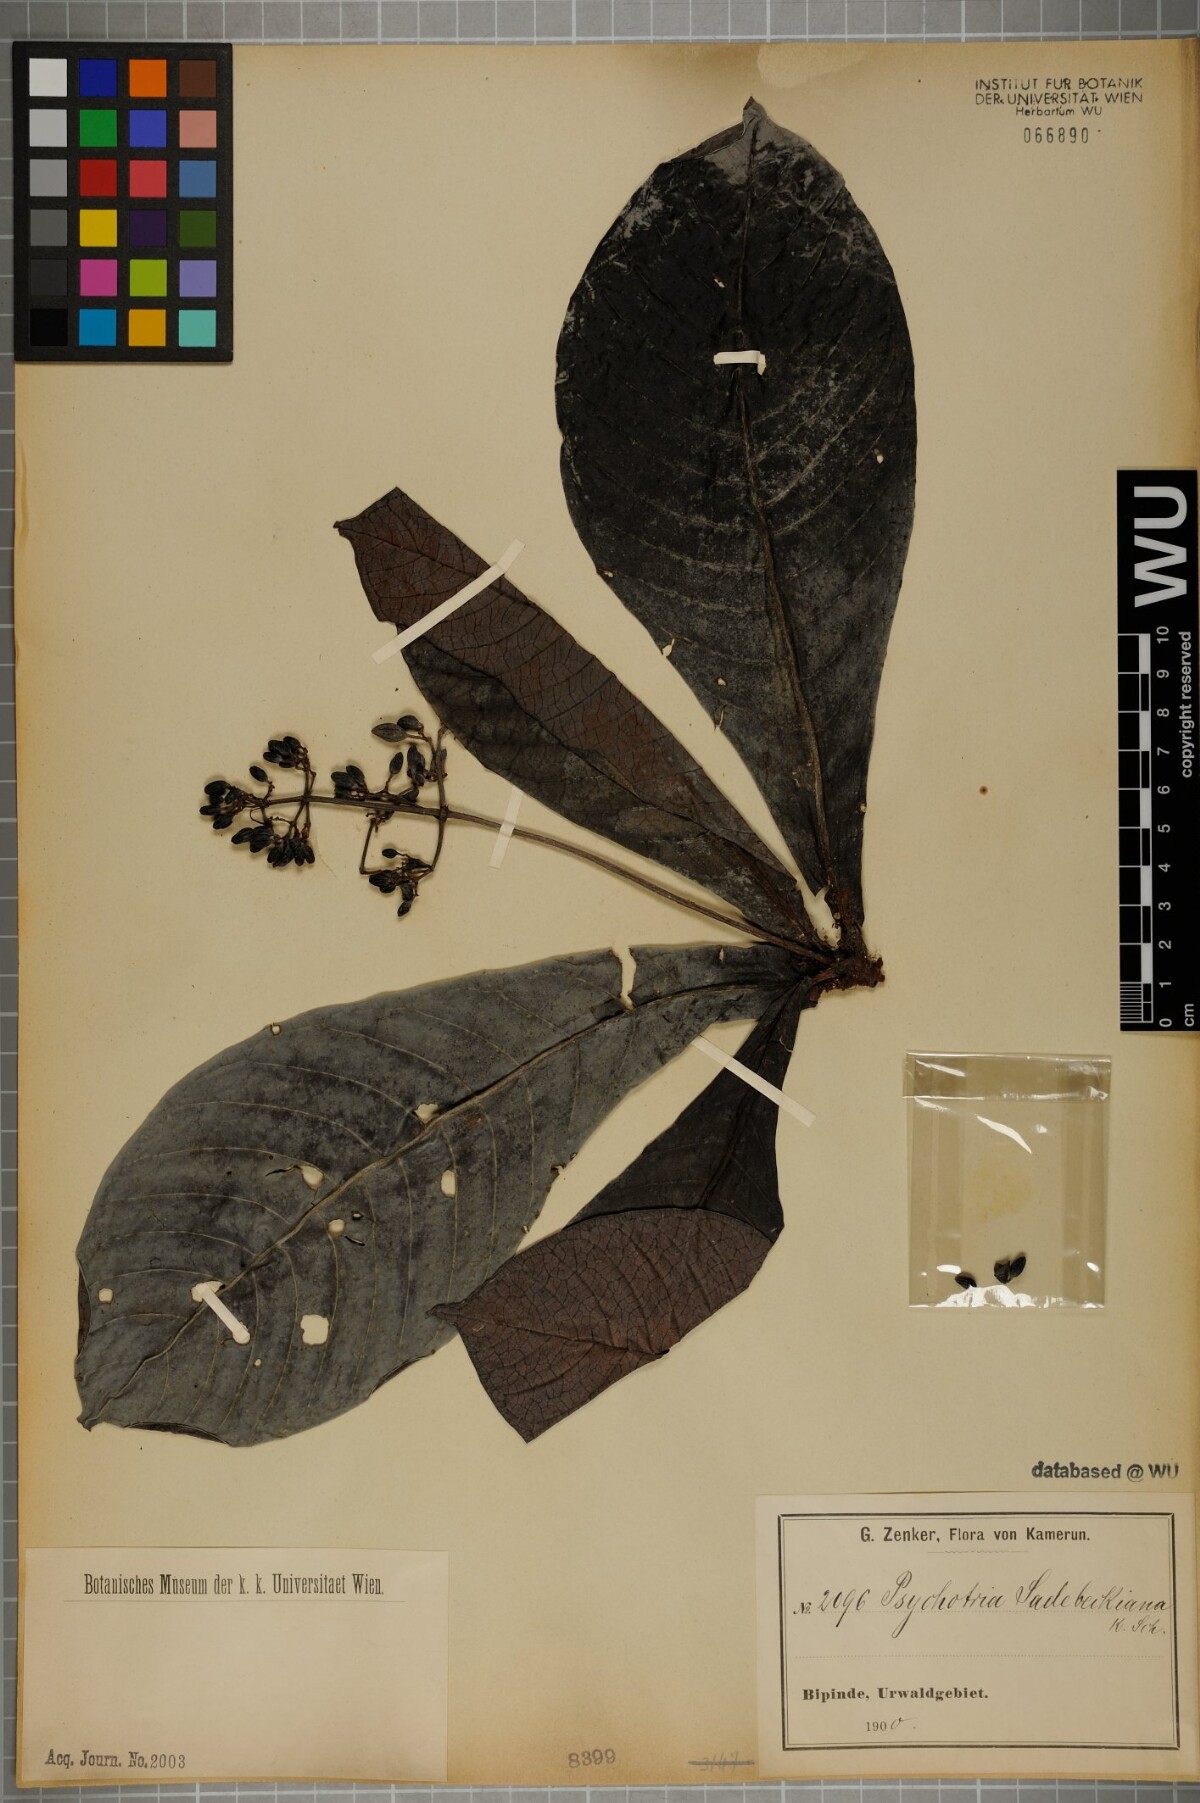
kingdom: Plantae
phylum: Tracheophyta
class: Magnoliopsida
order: Gentianales
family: Rubiaceae
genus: Psychotria
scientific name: Psychotria foliosa
